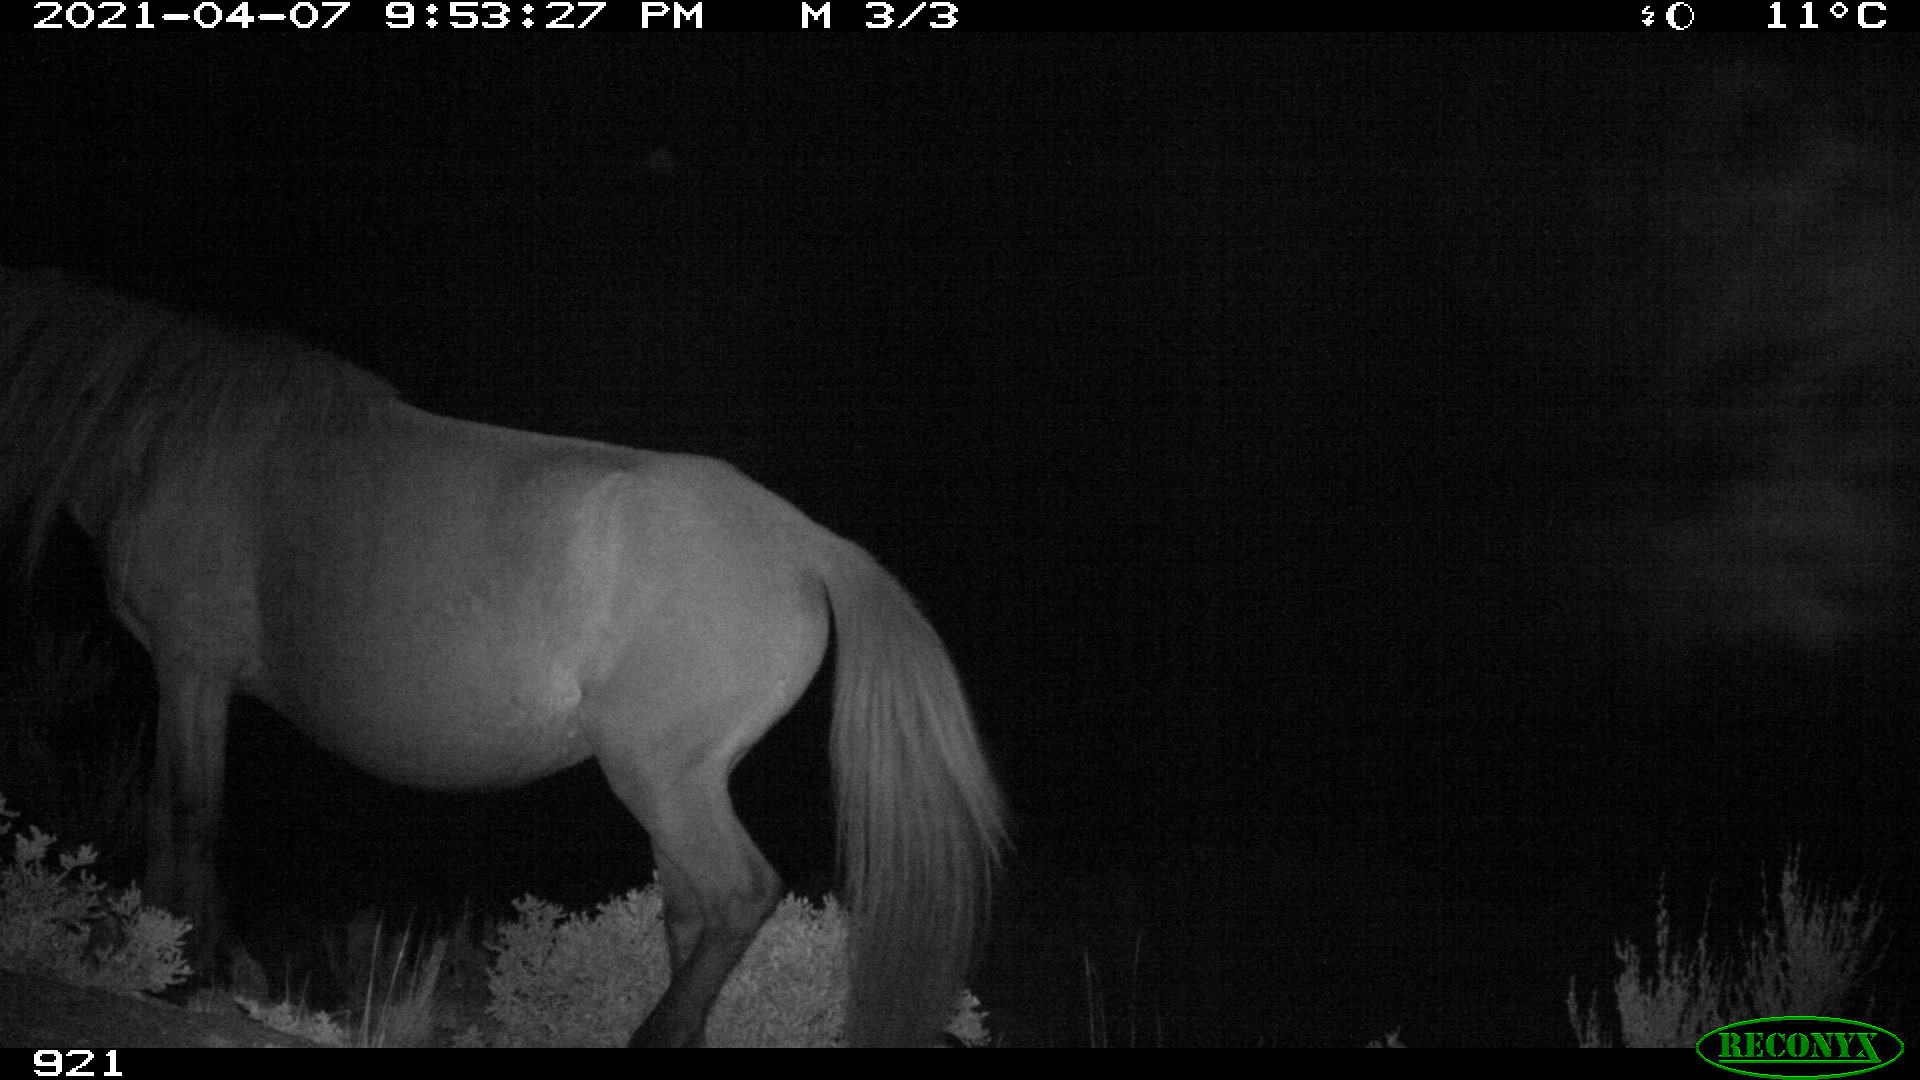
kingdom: Animalia
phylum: Chordata
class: Mammalia
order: Perissodactyla
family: Equidae
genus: Equus
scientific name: Equus caballus
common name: Horse
